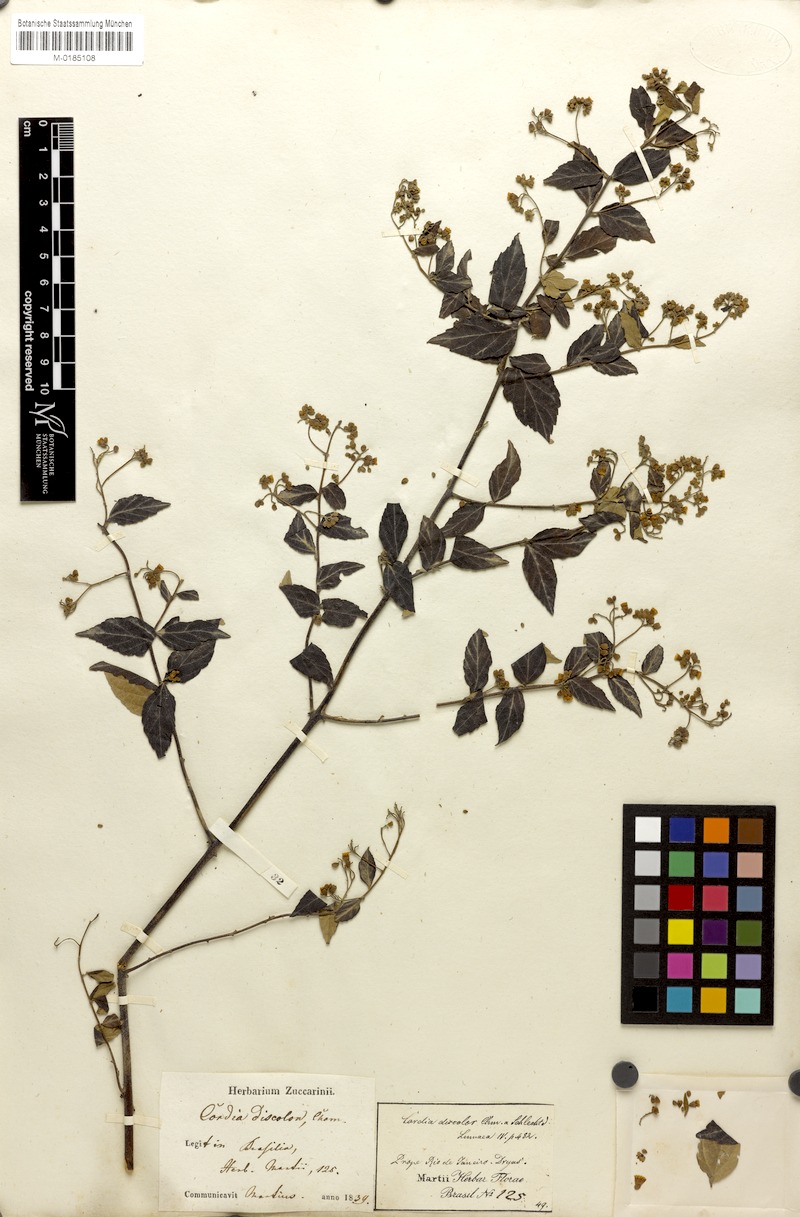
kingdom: Plantae
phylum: Tracheophyta
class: Magnoliopsida
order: Boraginales
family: Cordiaceae
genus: Varronia
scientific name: Varronia polycephala
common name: Black-sage
